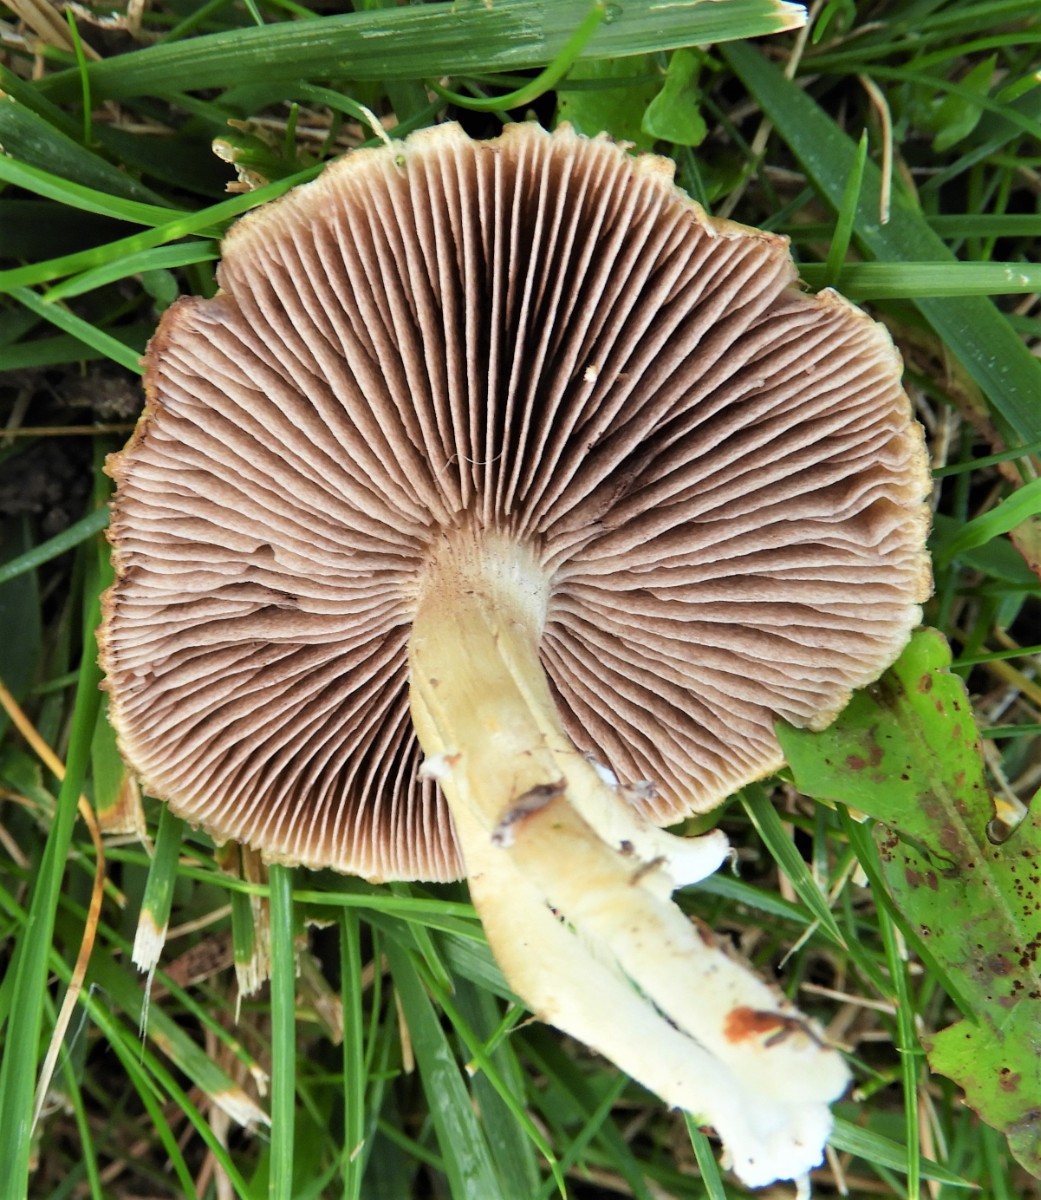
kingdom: Fungi
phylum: Basidiomycota
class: Agaricomycetes
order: Agaricales
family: Hymenogastraceae
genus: Psilocybe
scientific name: Psilocybe coronilla
